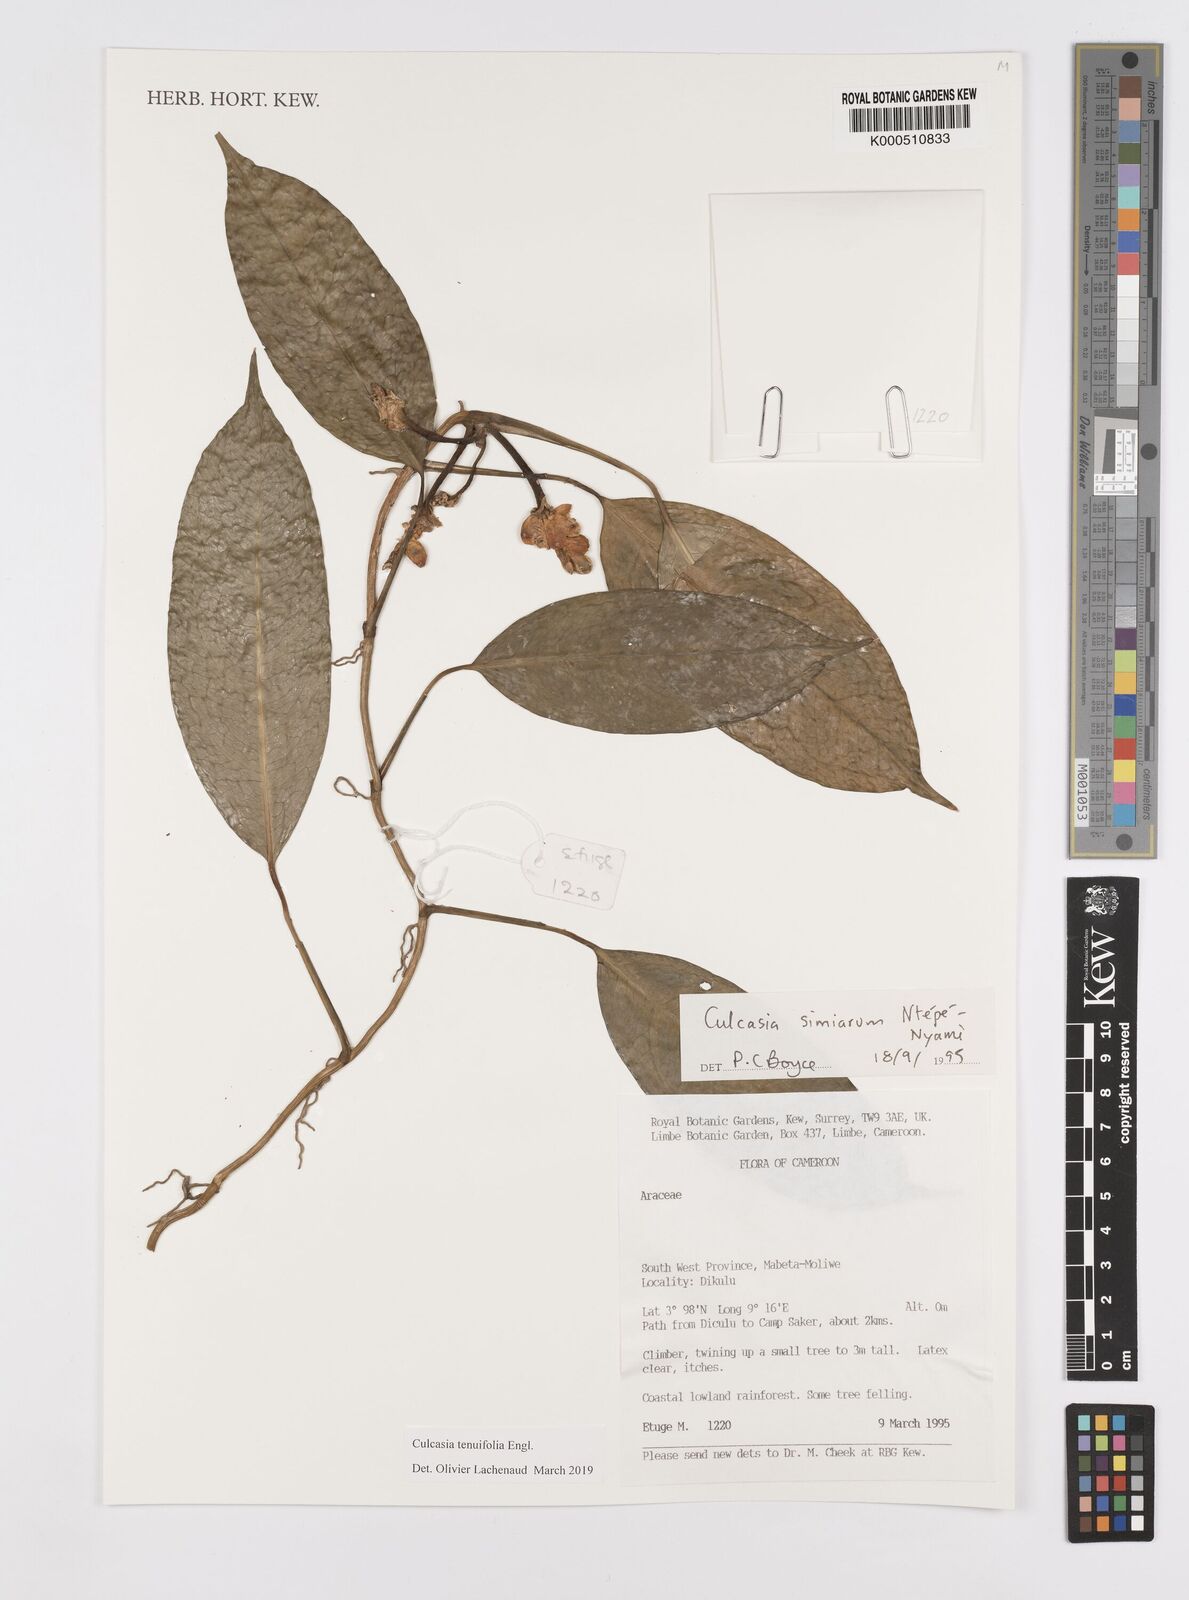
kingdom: Plantae
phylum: Tracheophyta
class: Liliopsida
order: Alismatales
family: Araceae
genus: Culcasia
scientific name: Culcasia tenuifolia
